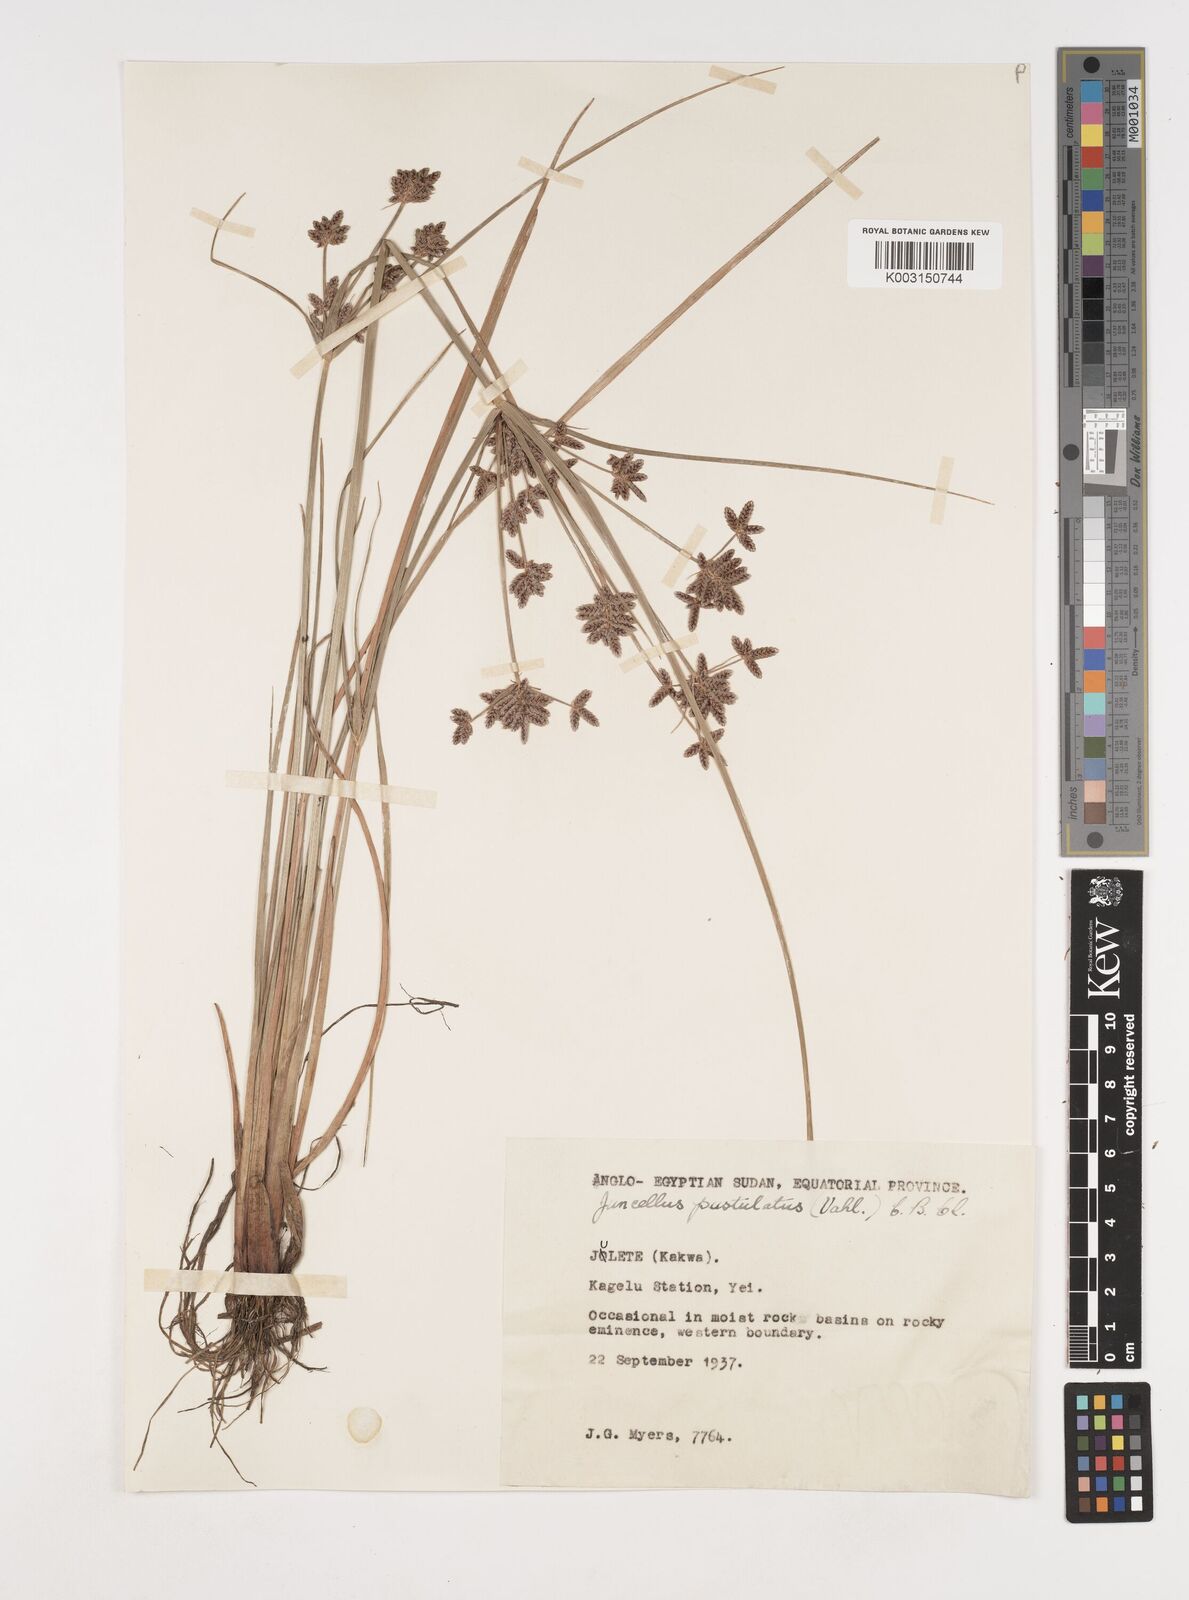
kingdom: Plantae
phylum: Tracheophyta
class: Liliopsida
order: Poales
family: Cyperaceae
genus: Cyperus
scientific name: Cyperus pustulatus
